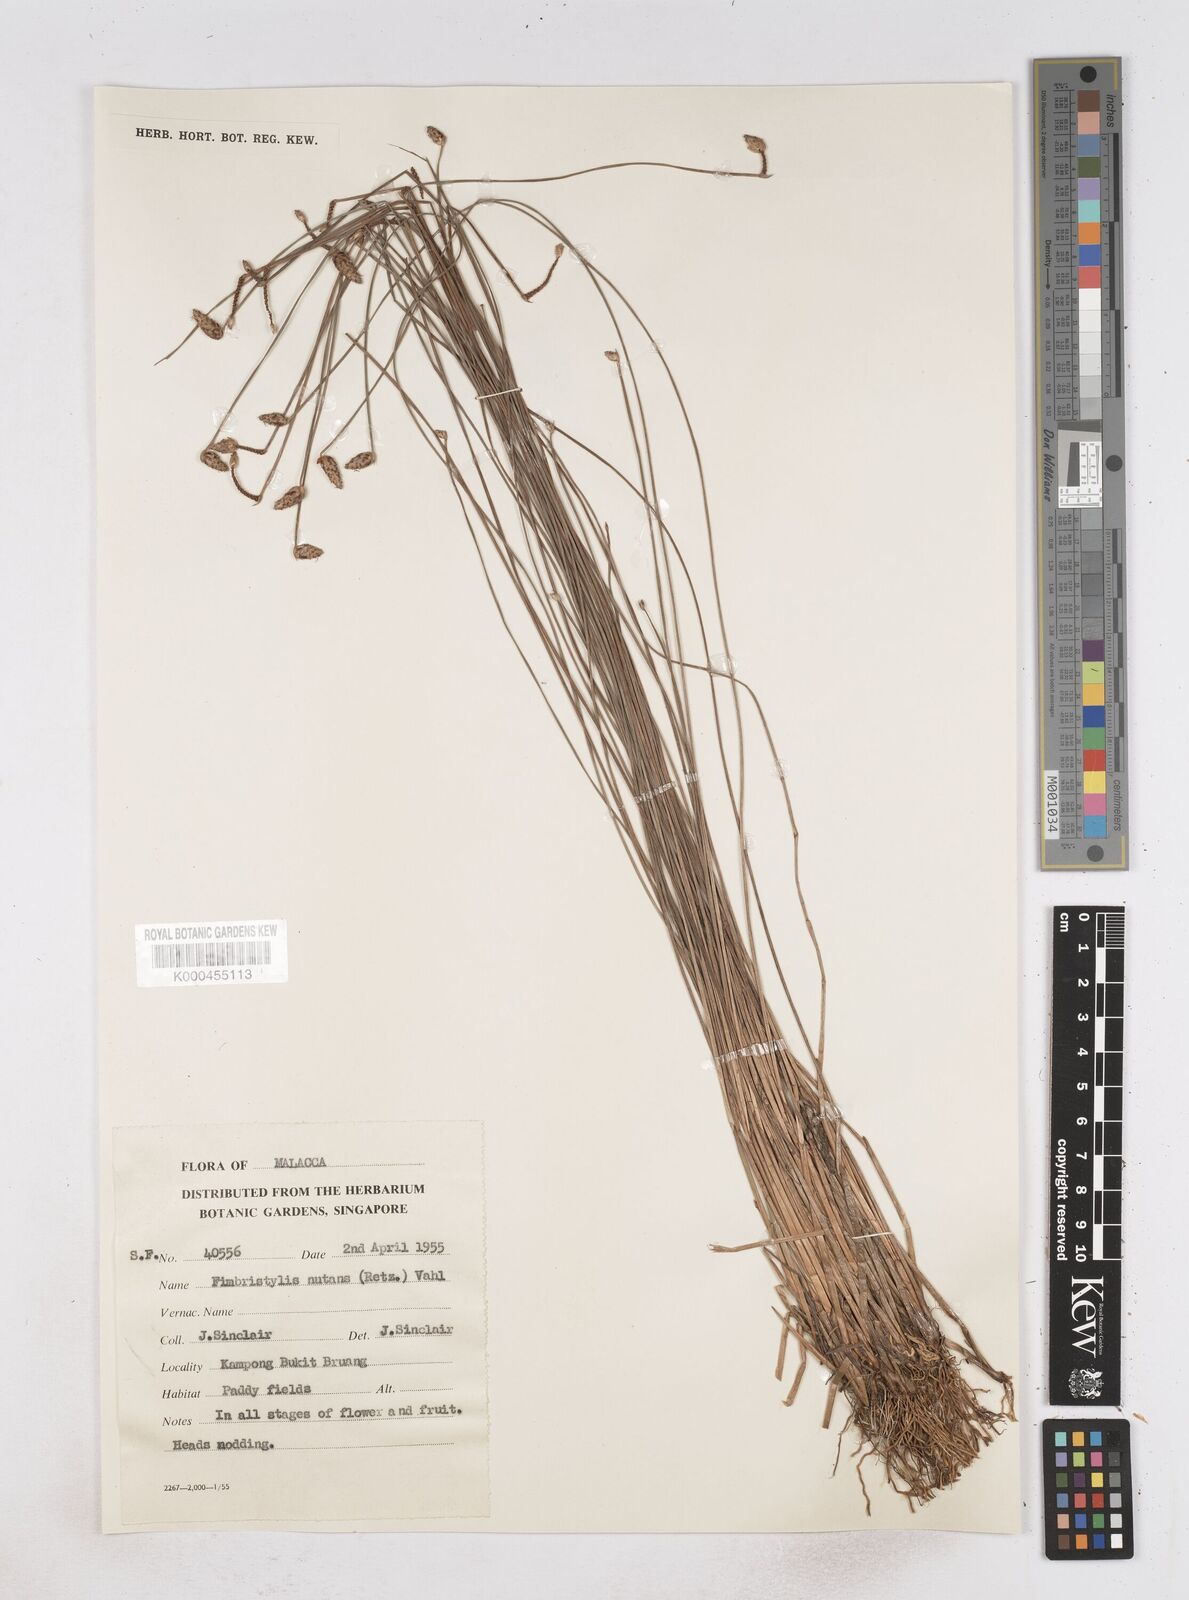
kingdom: Plantae
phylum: Tracheophyta
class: Liliopsida
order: Poales
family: Cyperaceae
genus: Fimbristylis
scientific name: Fimbristylis nutans
